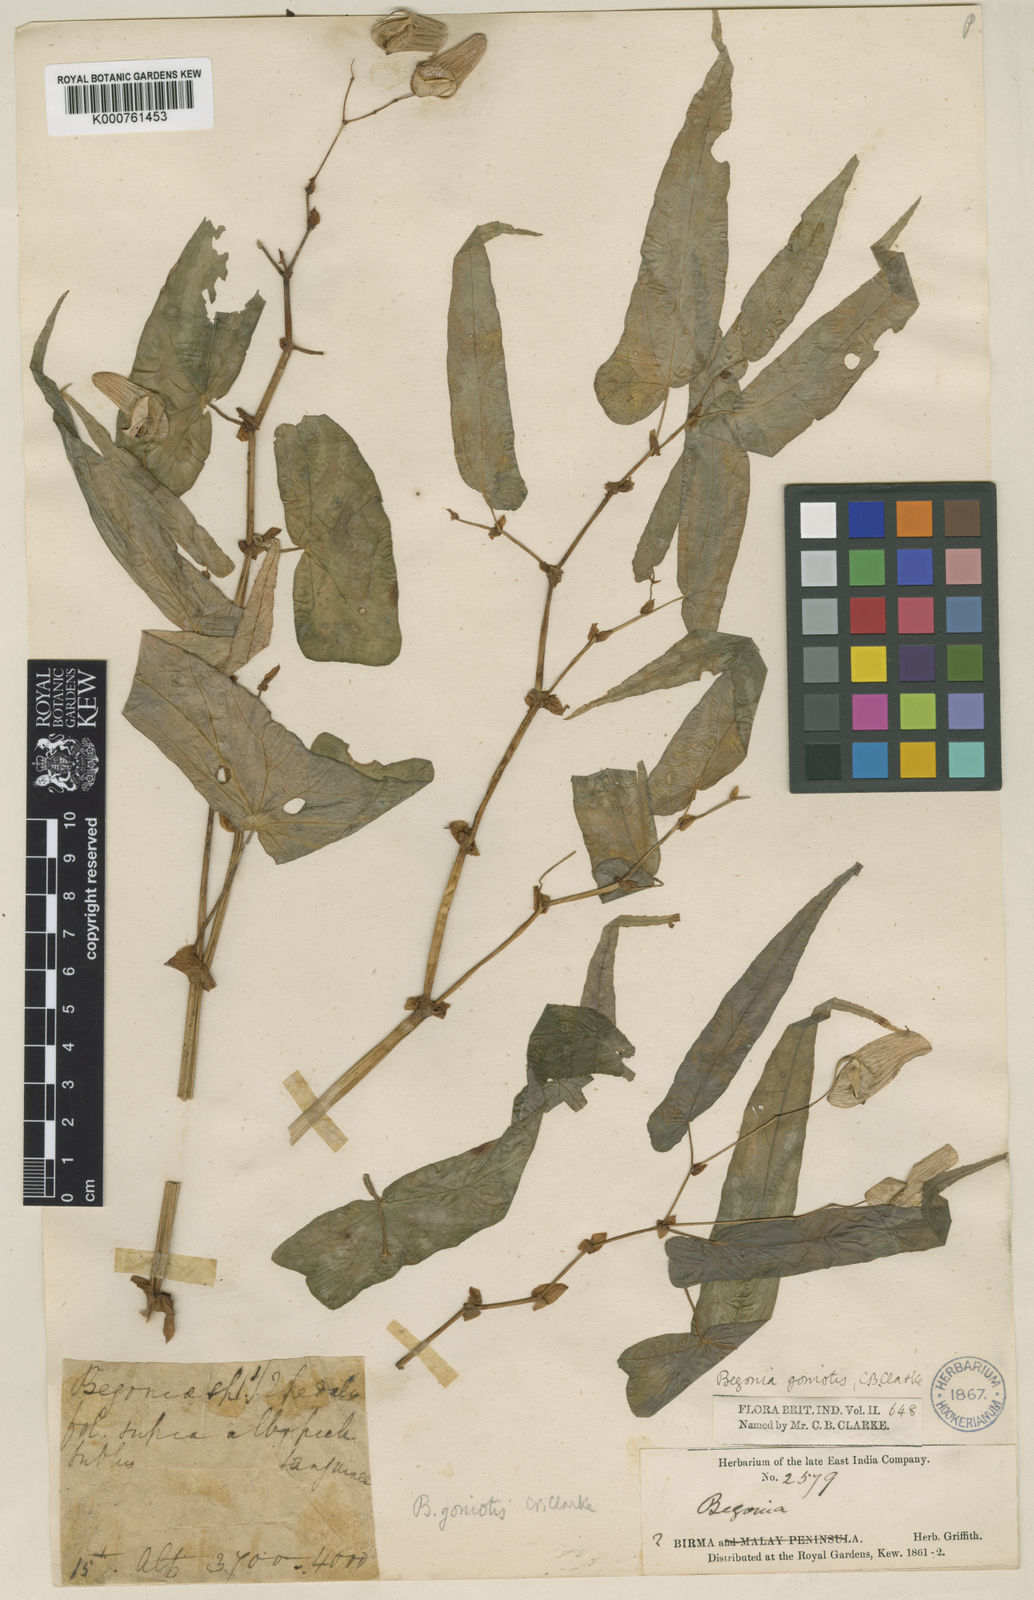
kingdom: Plantae
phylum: Tracheophyta
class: Magnoliopsida
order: Cucurbitales
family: Begoniaceae
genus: Begonia
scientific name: Begonia goniotis
